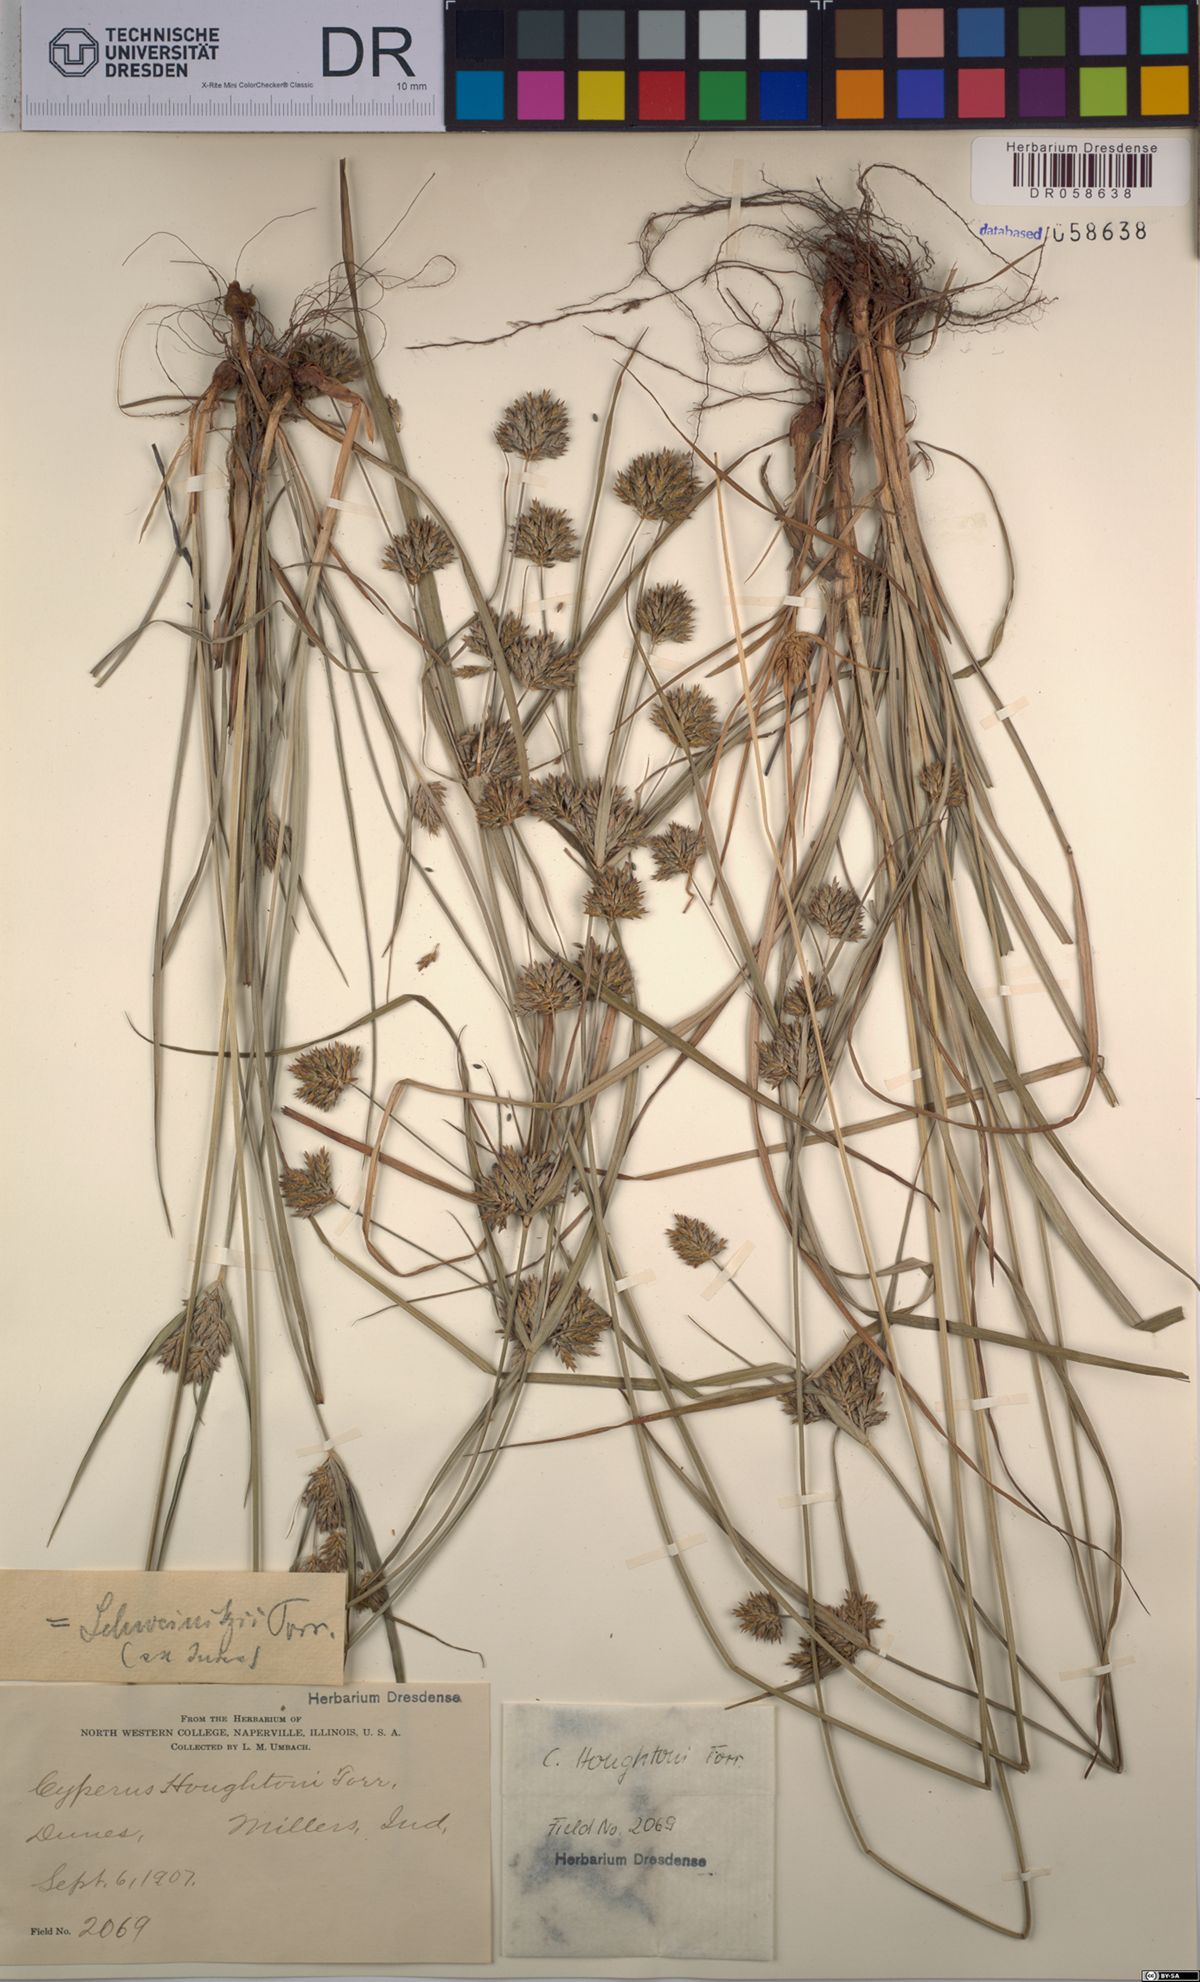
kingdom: Plantae
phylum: Tracheophyta
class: Liliopsida
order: Poales
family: Cyperaceae
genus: Cyperus
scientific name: Cyperus houghtonii
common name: Houghton's cyperus
